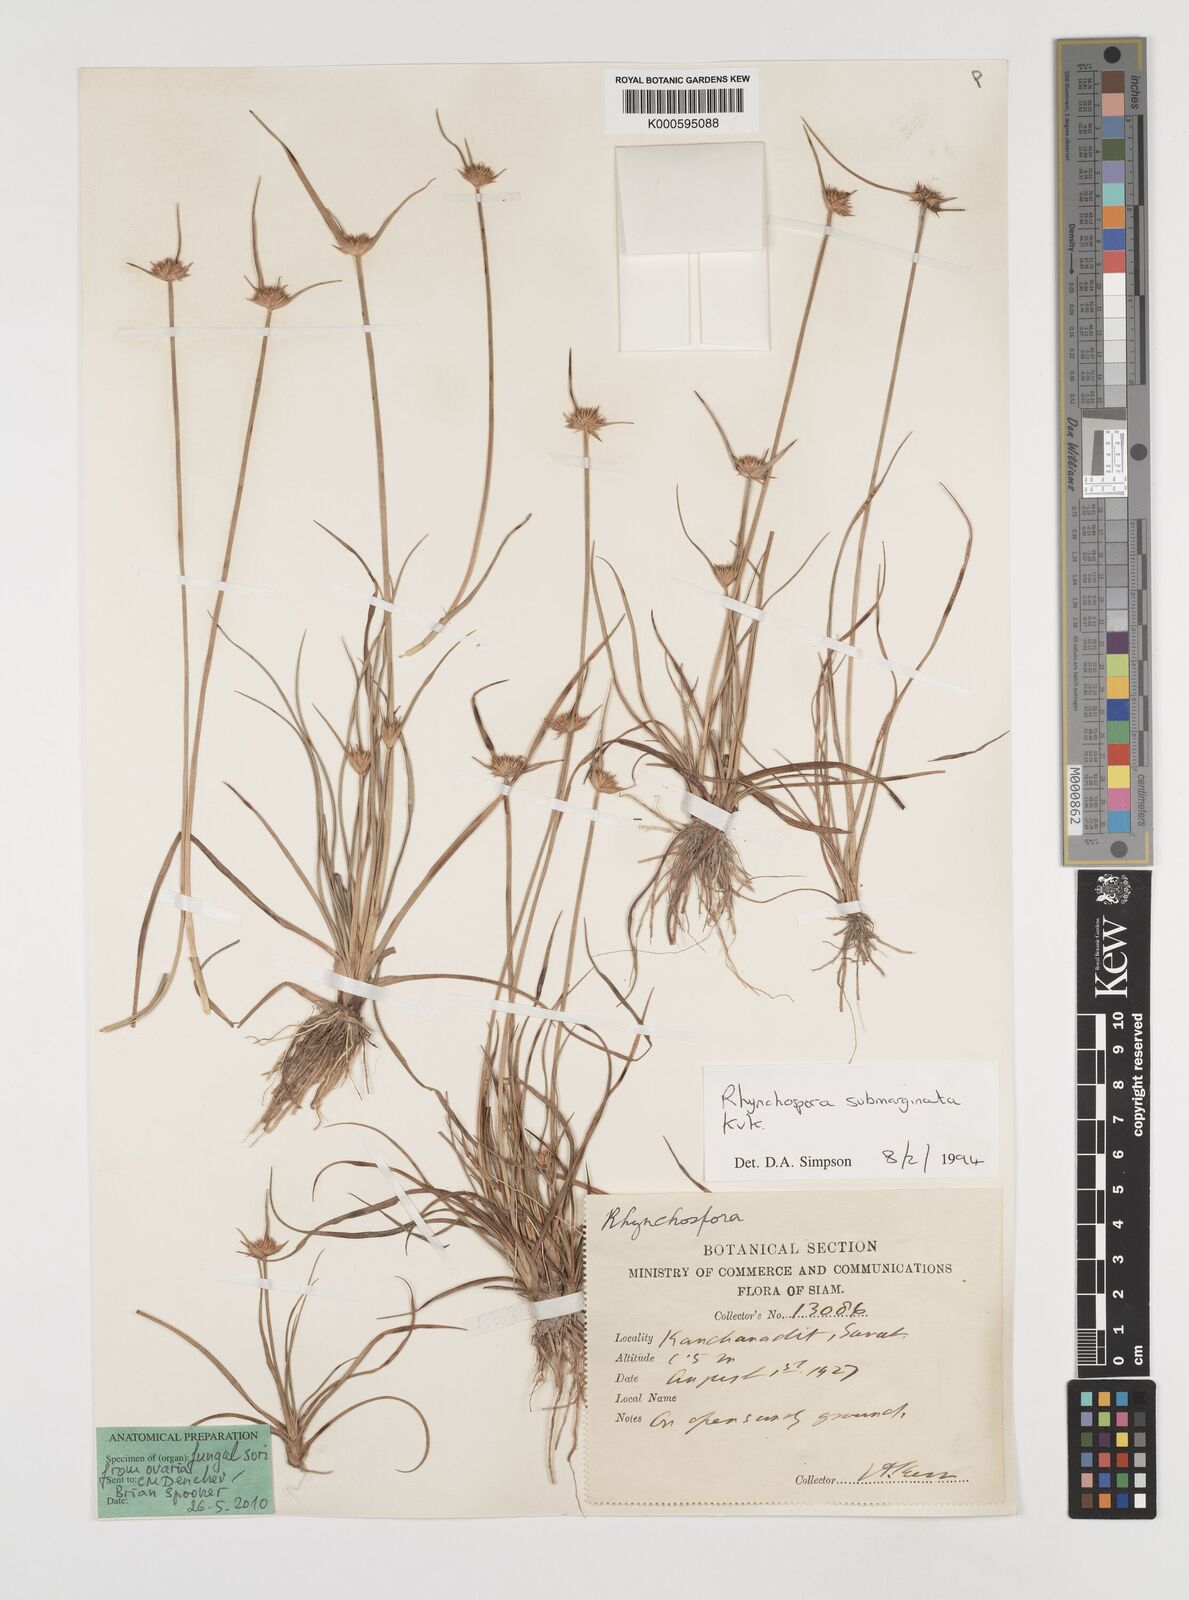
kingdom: Plantae
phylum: Tracheophyta
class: Liliopsida
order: Poales
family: Cyperaceae
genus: Rhynchospora
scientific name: Rhynchospora
